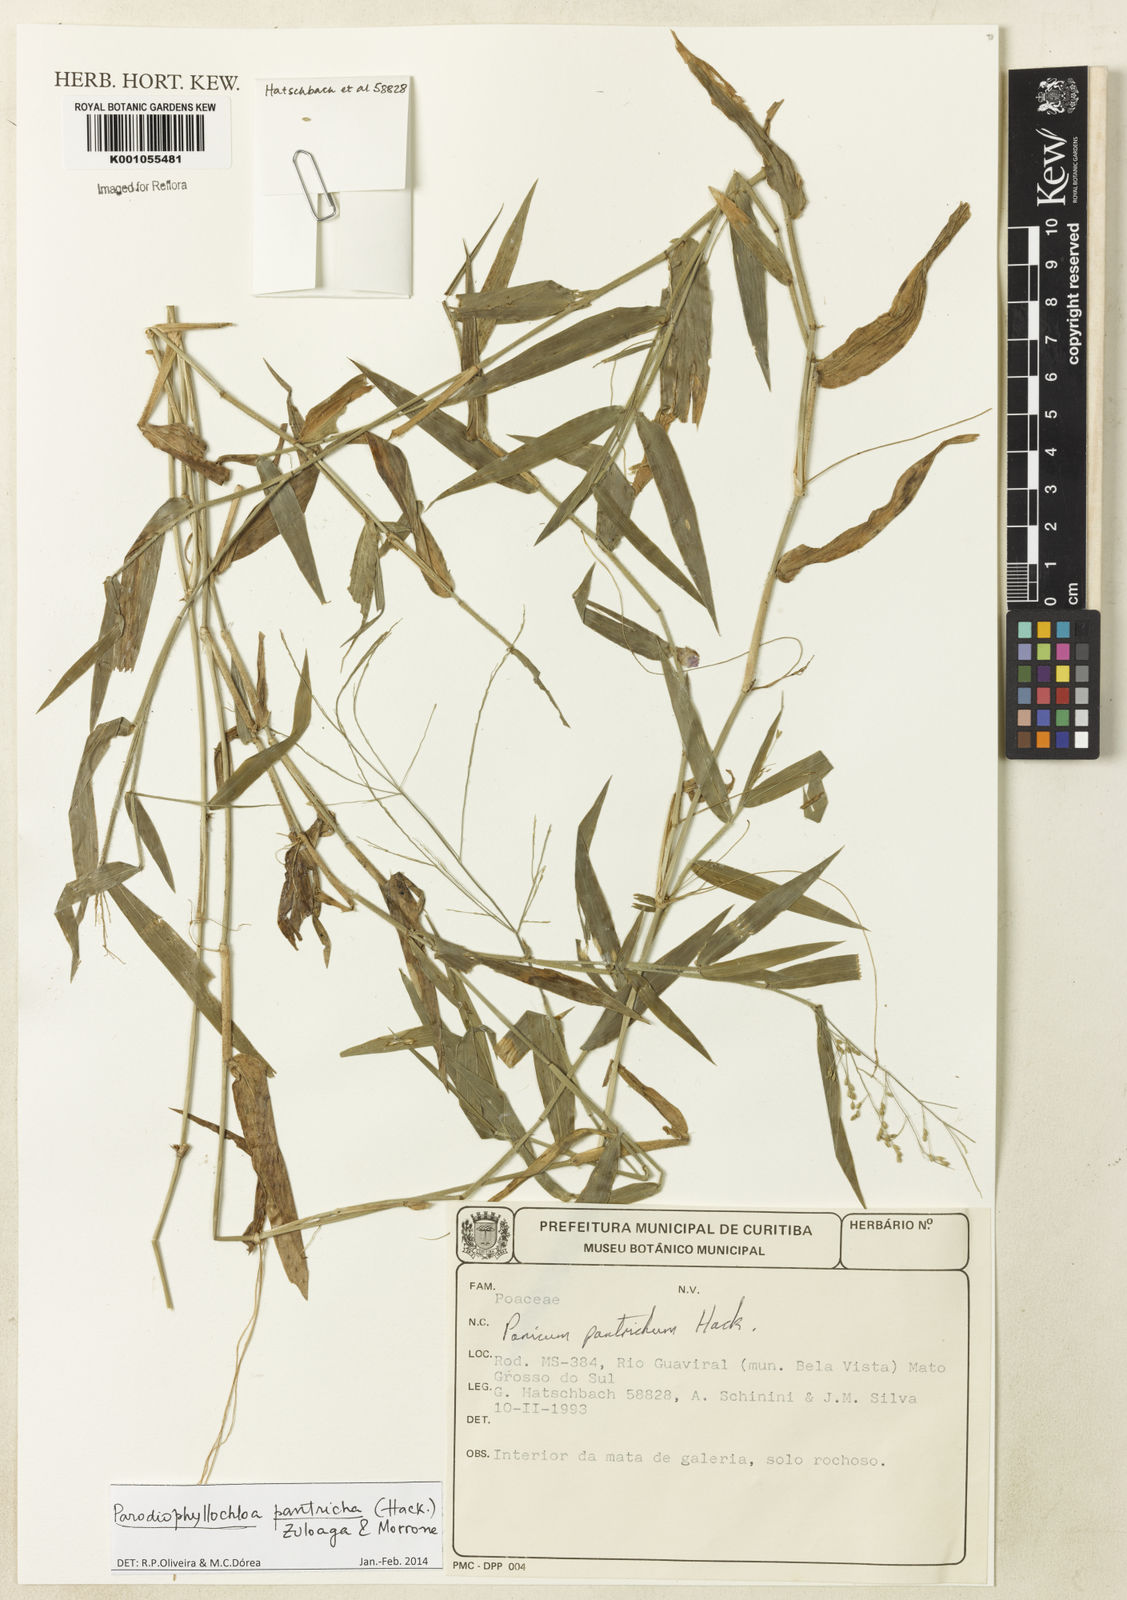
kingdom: Plantae
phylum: Tracheophyta
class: Liliopsida
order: Poales
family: Poaceae
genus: Parodiophyllochloa
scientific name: Parodiophyllochloa pantricha
